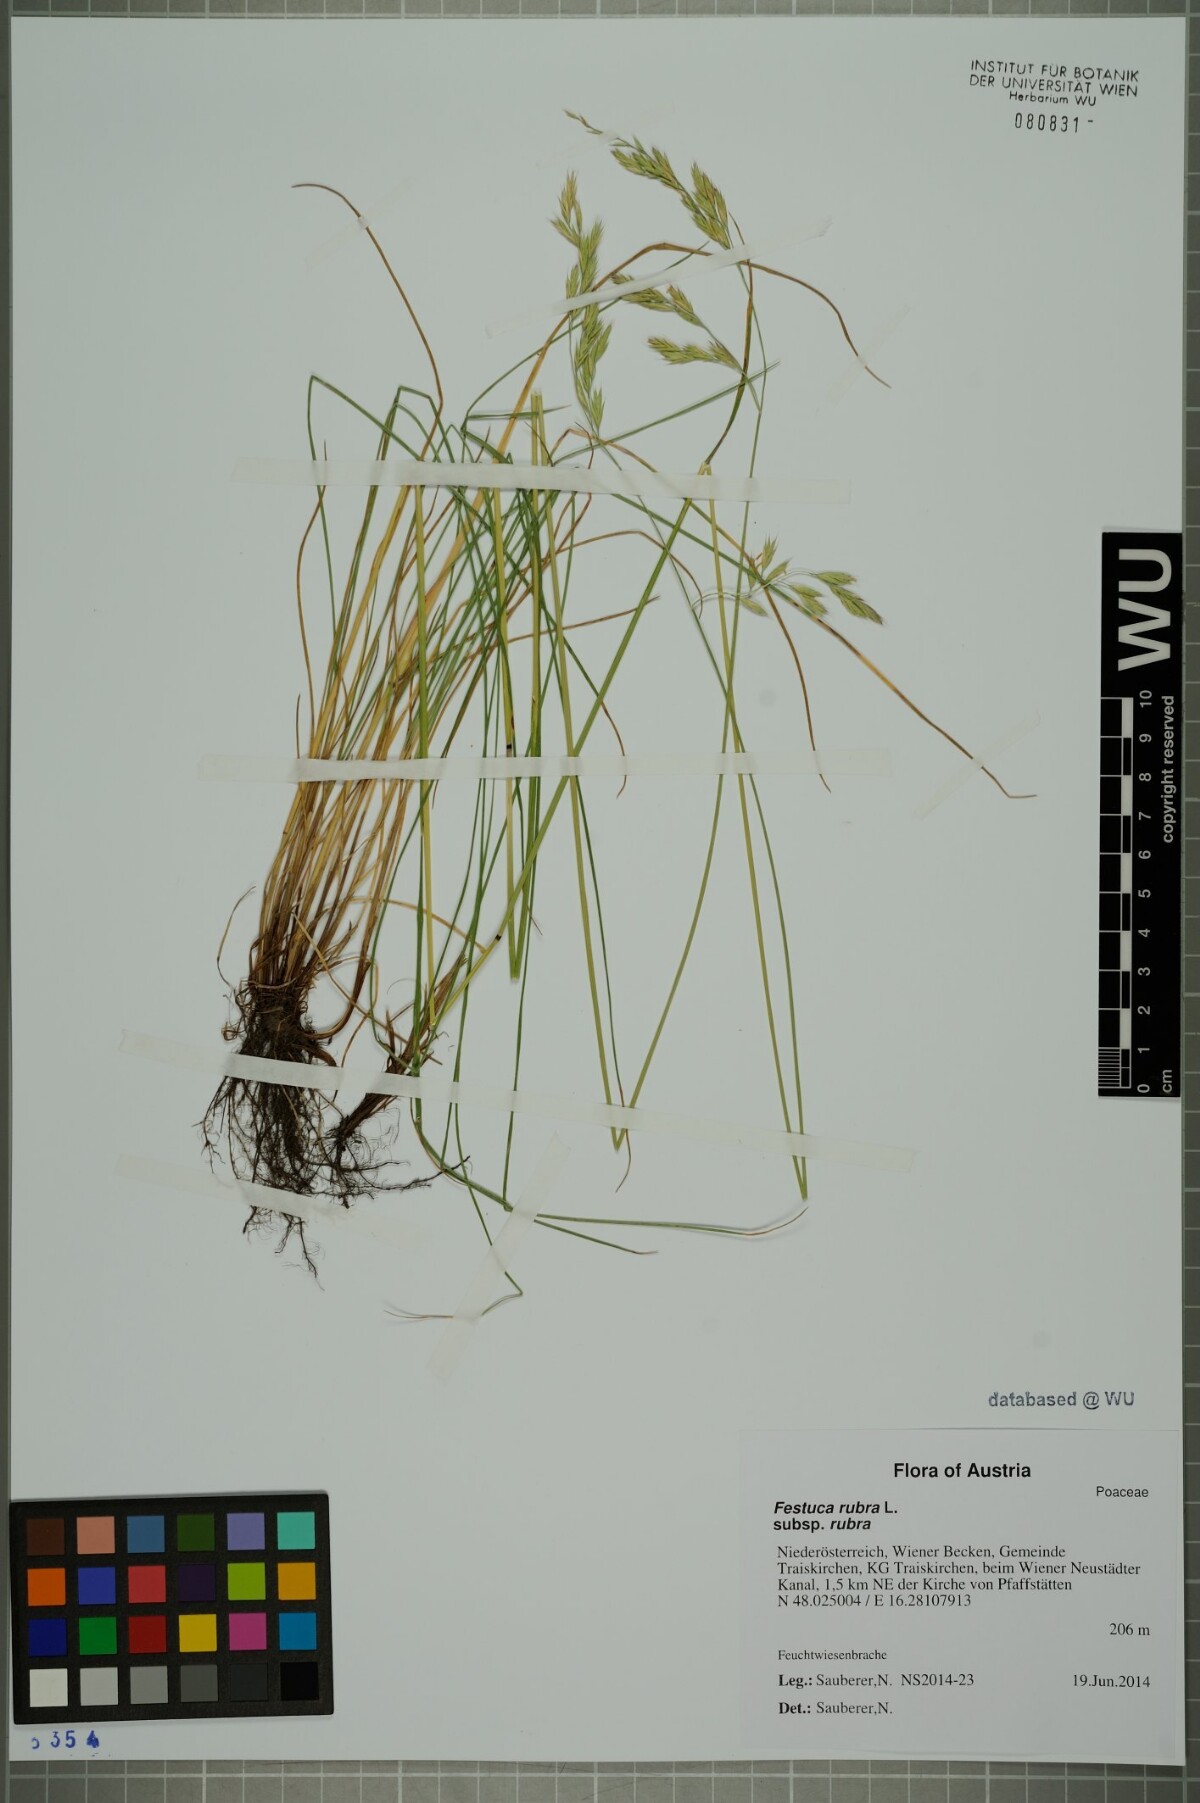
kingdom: Plantae
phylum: Tracheophyta
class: Liliopsida
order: Poales
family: Poaceae
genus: Festuca
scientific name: Festuca rubra
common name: Red fescue
